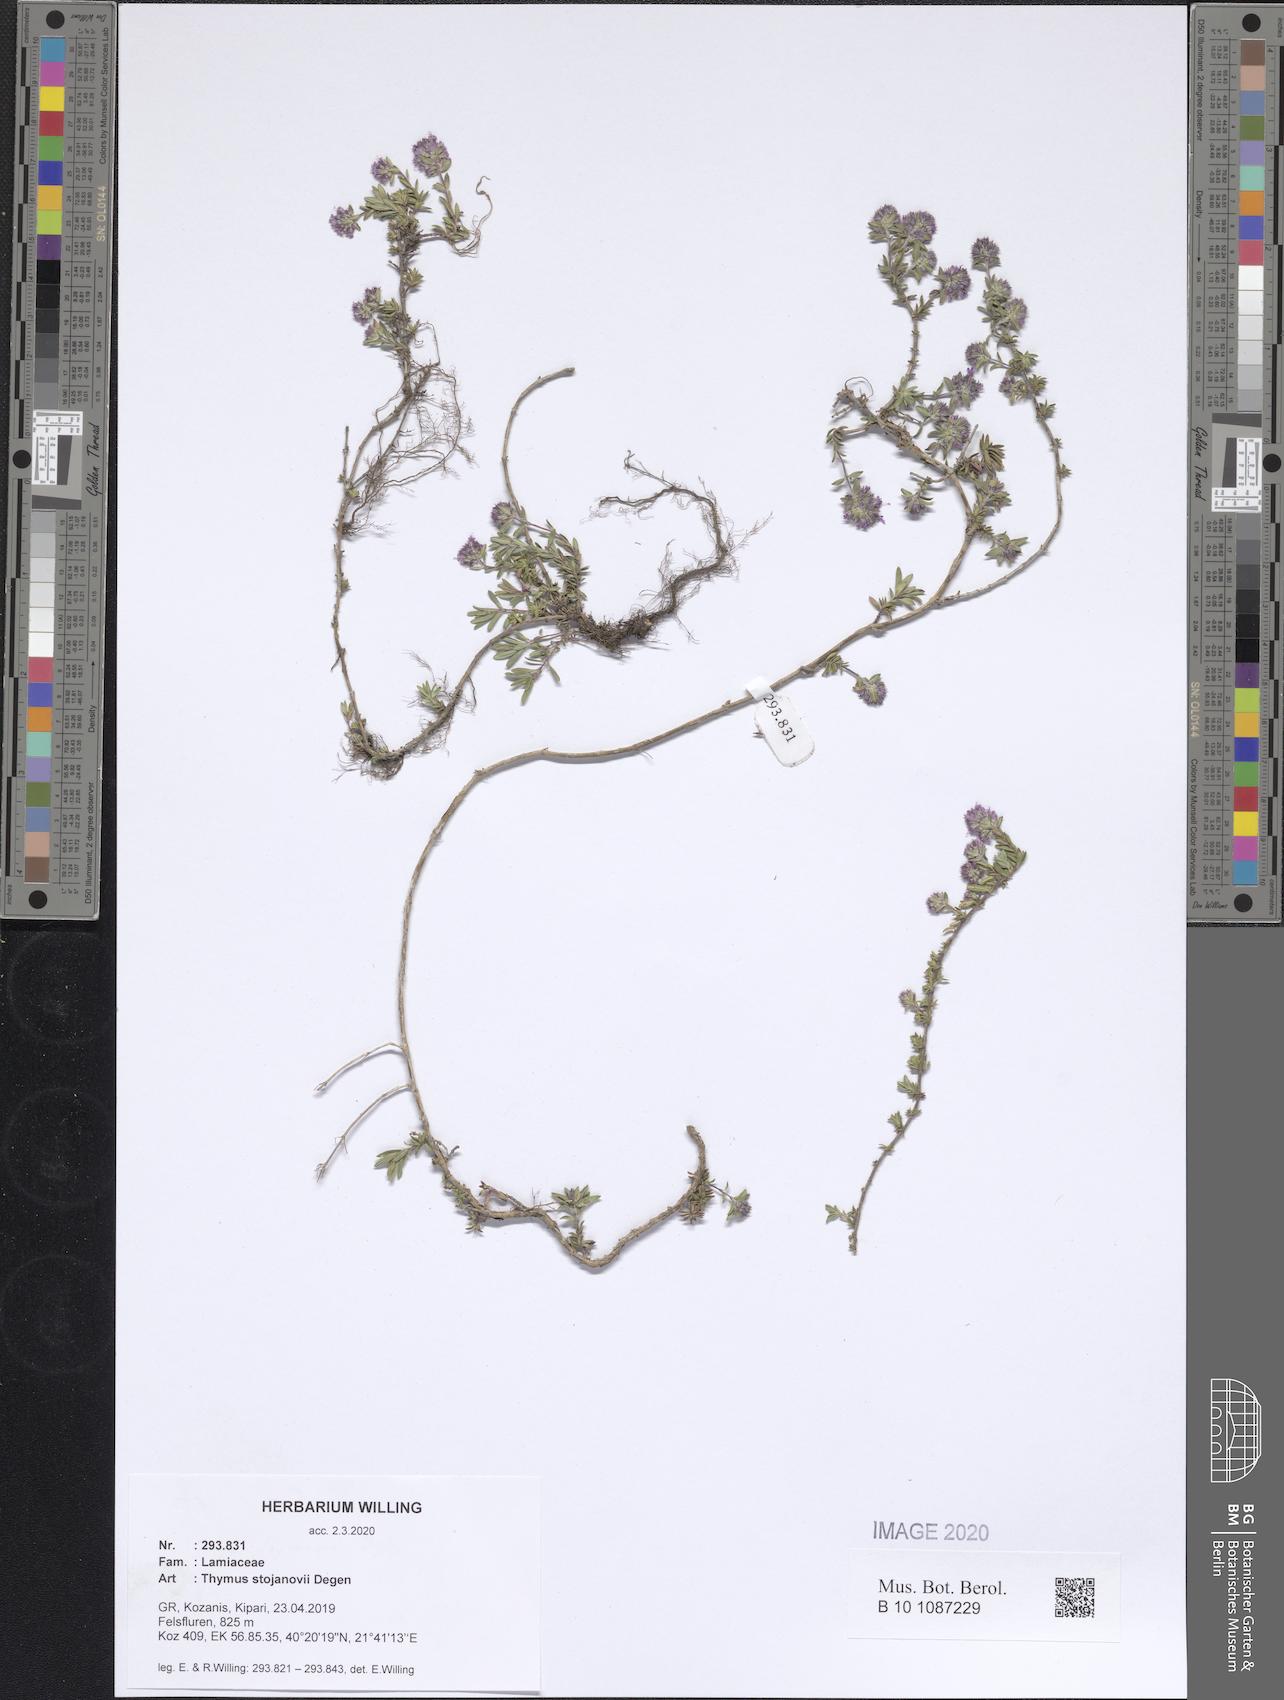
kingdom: Plantae
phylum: Tracheophyta
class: Magnoliopsida
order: Lamiales
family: Lamiaceae
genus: Thymus
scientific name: Thymus stojanovii
